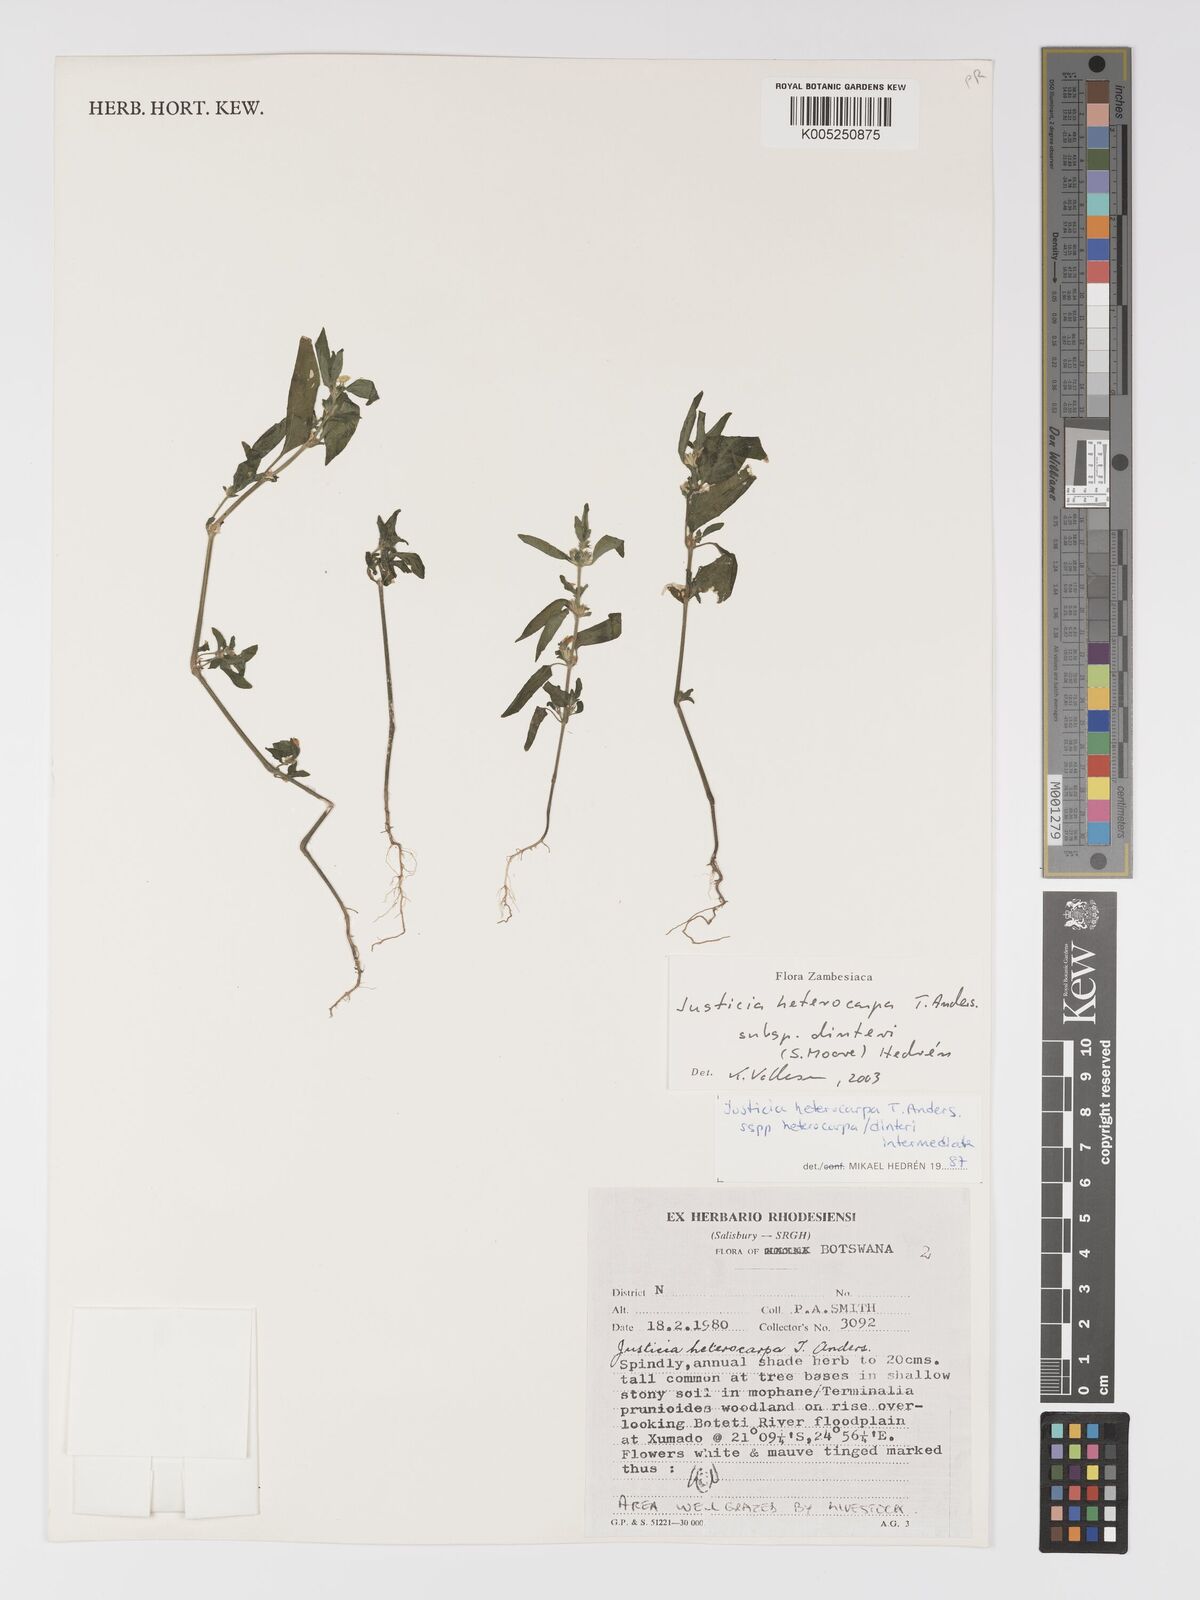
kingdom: Plantae
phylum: Tracheophyta
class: Magnoliopsida
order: Lamiales
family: Acanthaceae
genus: Justicia
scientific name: Justicia heterocarpa
